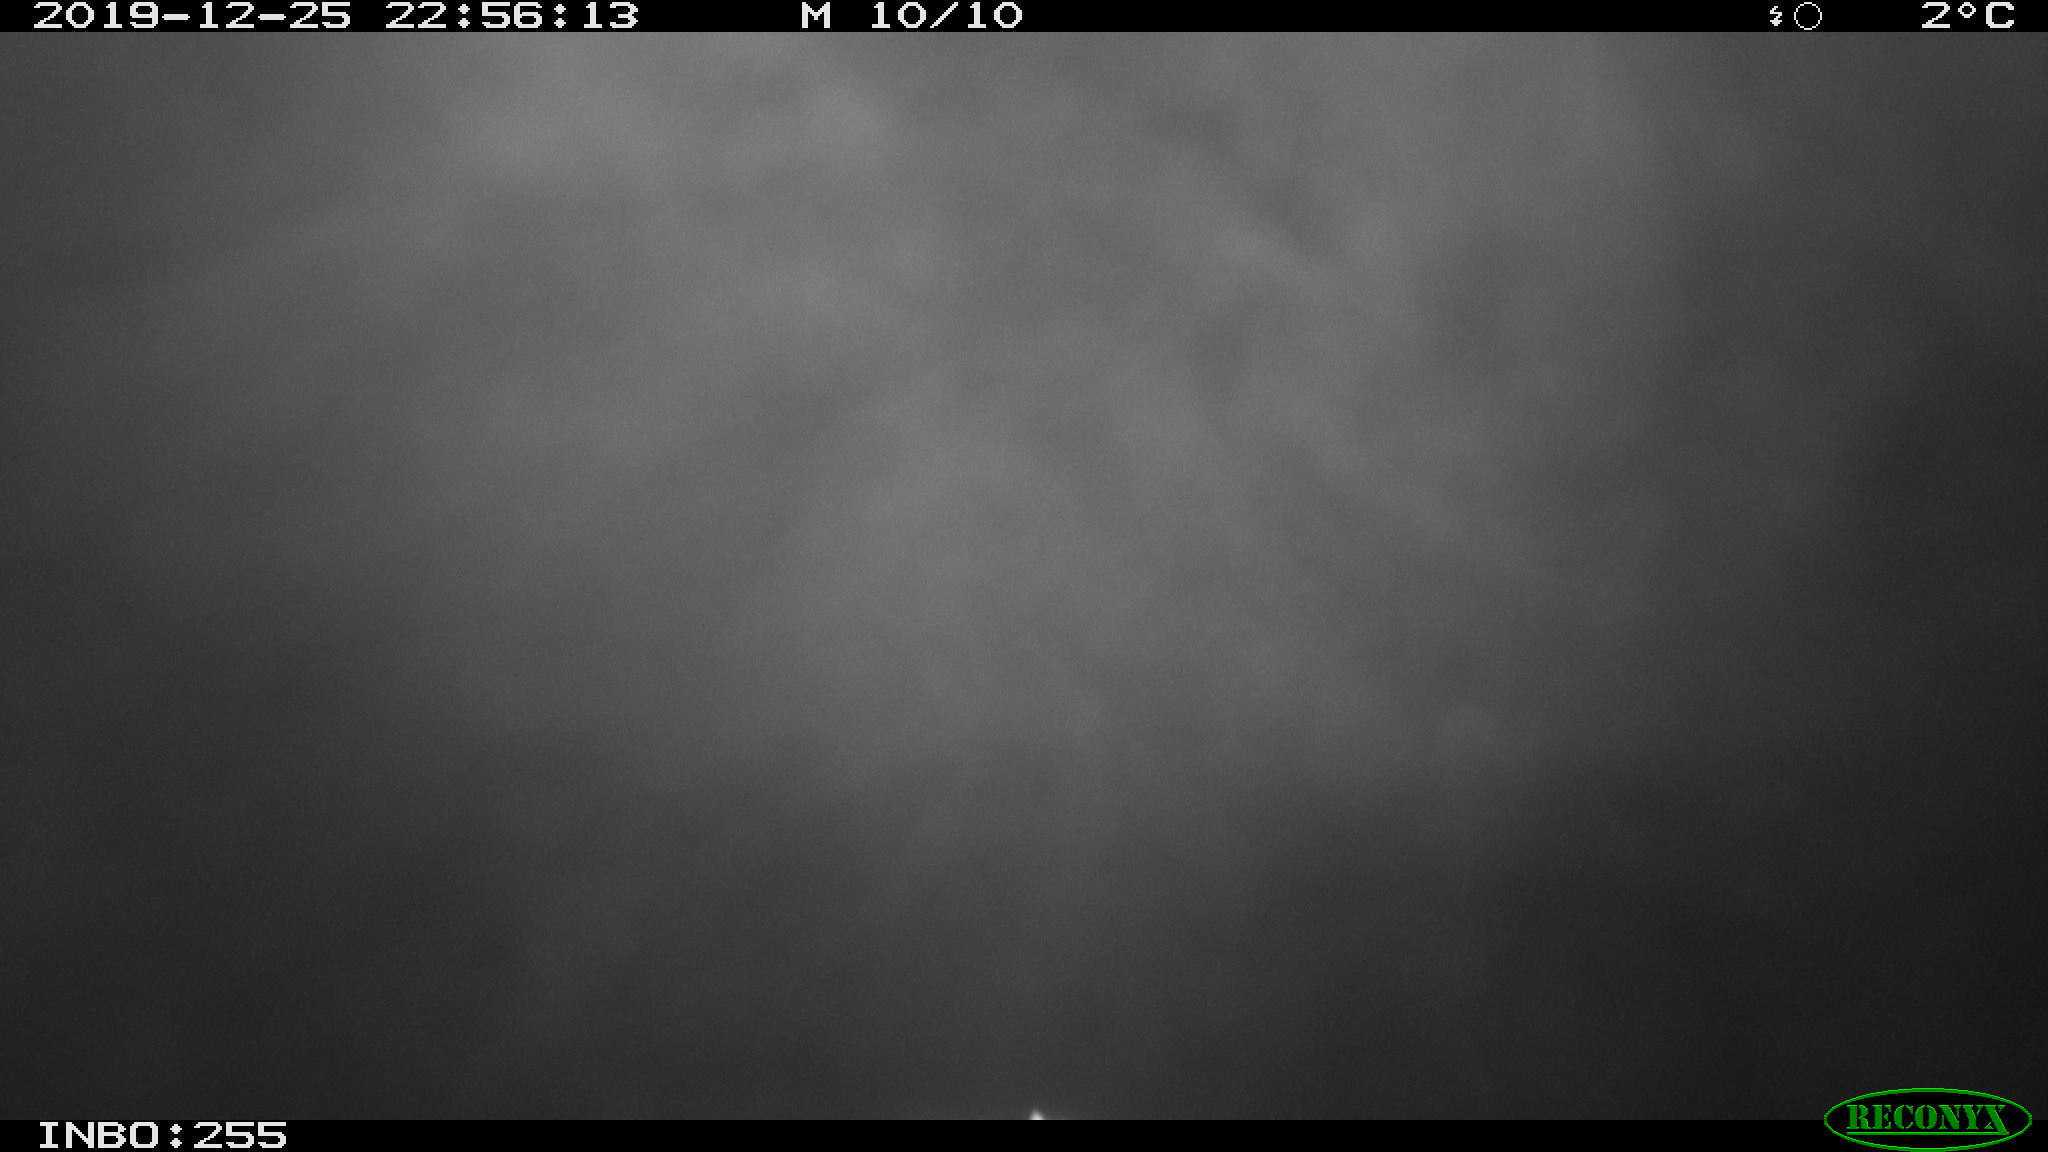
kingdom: Animalia
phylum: Chordata
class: Aves
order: Anseriformes
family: Anatidae
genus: Anas
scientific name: Anas platyrhynchos
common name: Mallard
